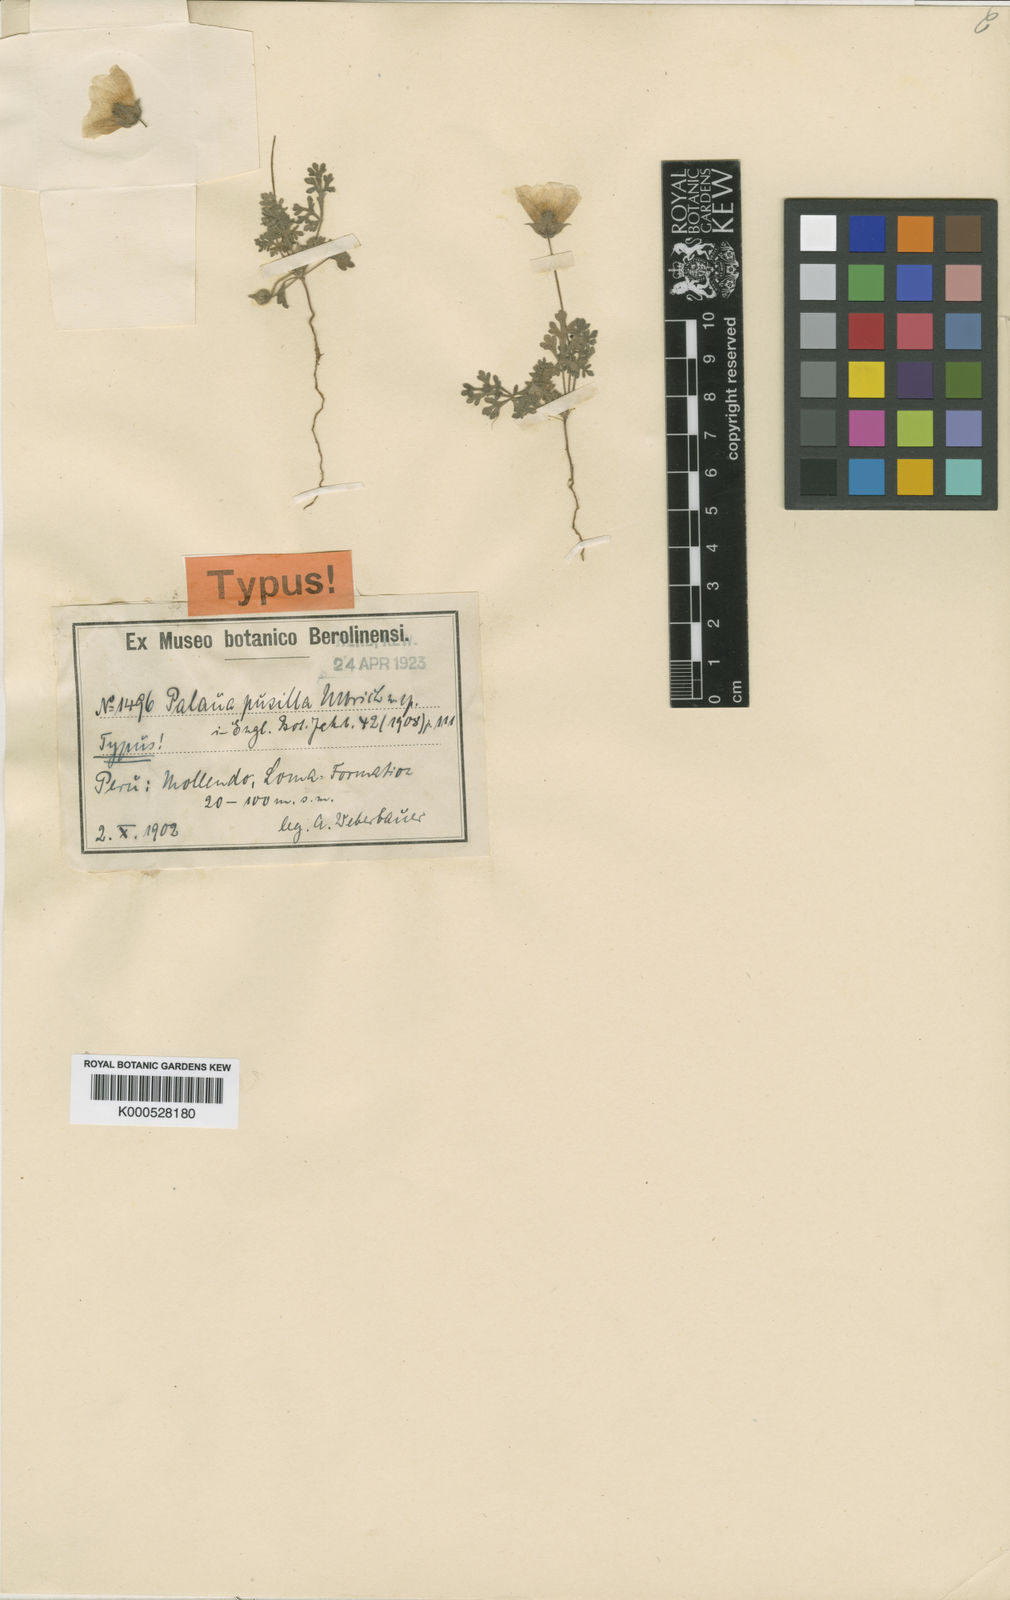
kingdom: Plantae
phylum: Tracheophyta
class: Magnoliopsida
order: Malvales
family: Malvaceae
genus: Palaua
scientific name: Palaua pusilla
